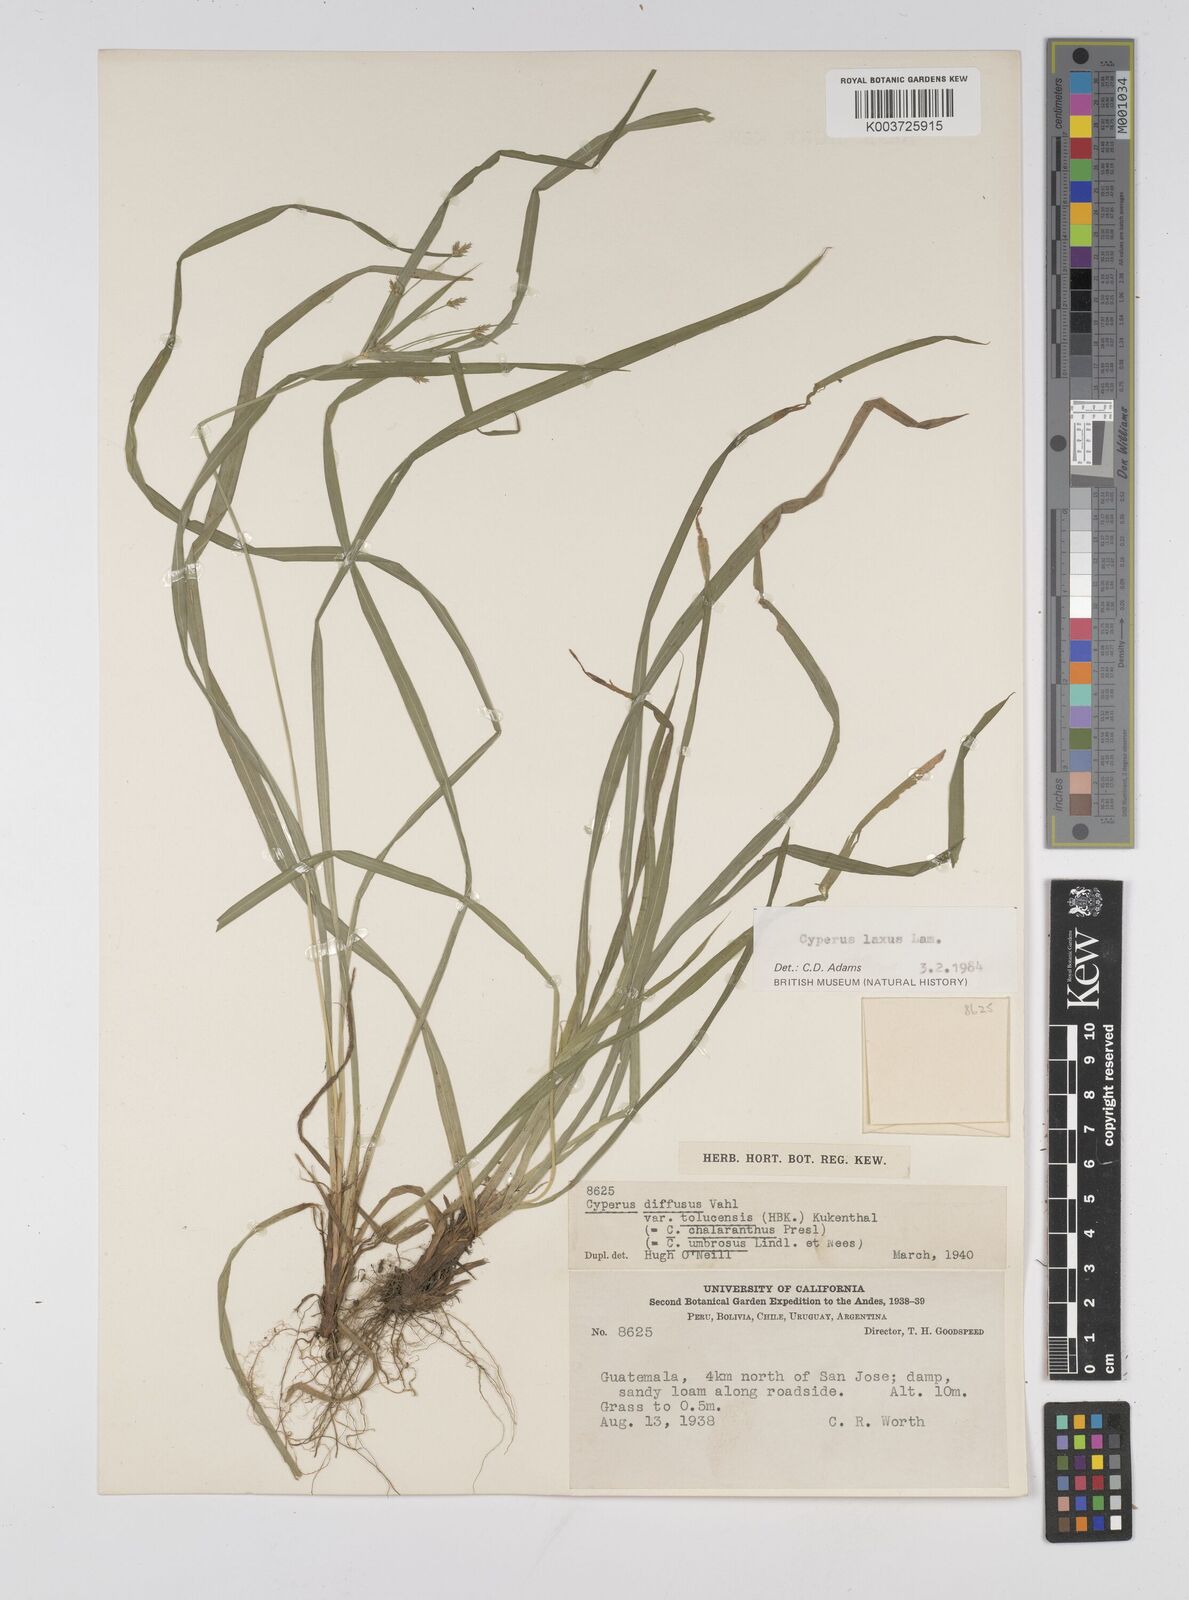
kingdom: Plantae
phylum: Tracheophyta
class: Liliopsida
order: Poales
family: Cyperaceae
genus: Cyperus
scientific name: Cyperus chalaranthus
